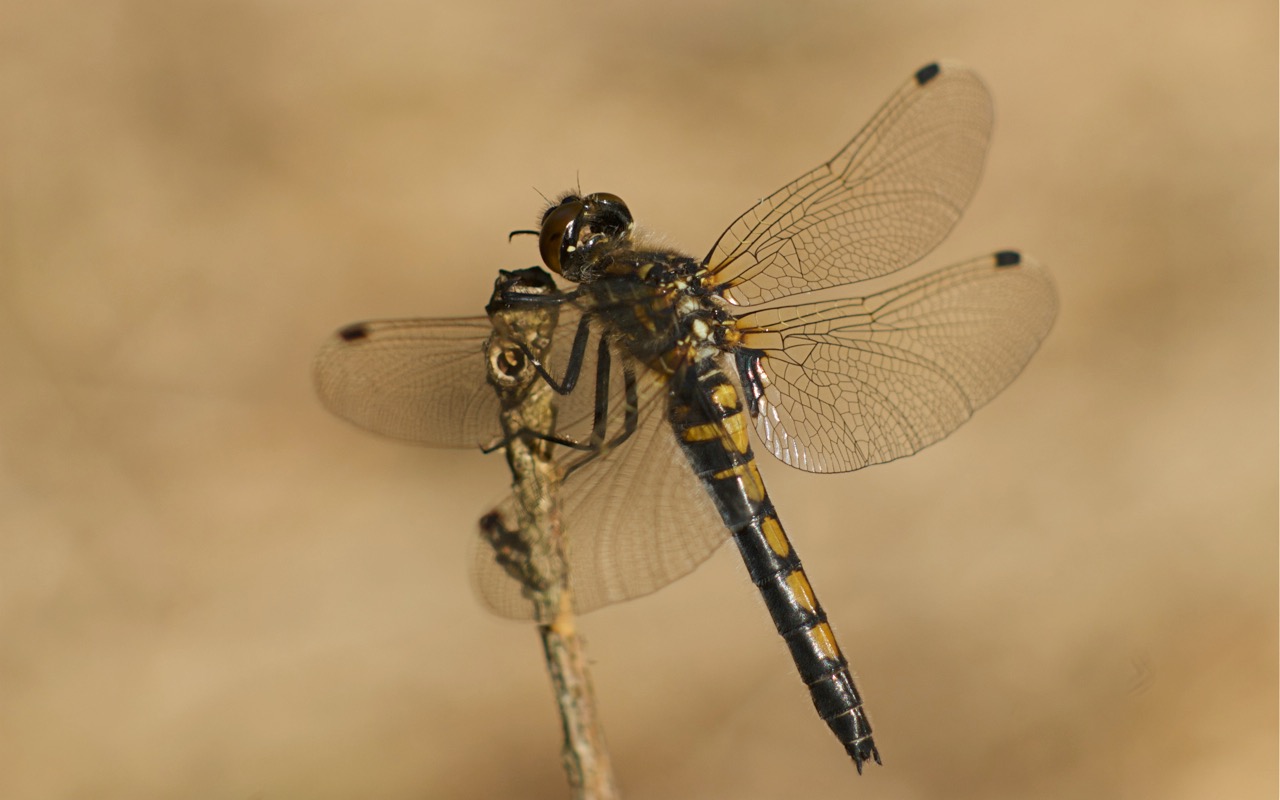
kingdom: Animalia
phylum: Arthropoda
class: Insecta
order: Odonata
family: Libellulidae
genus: Leucorrhinia
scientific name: Leucorrhinia rubicunda
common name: Nordisk kærguldsmed
